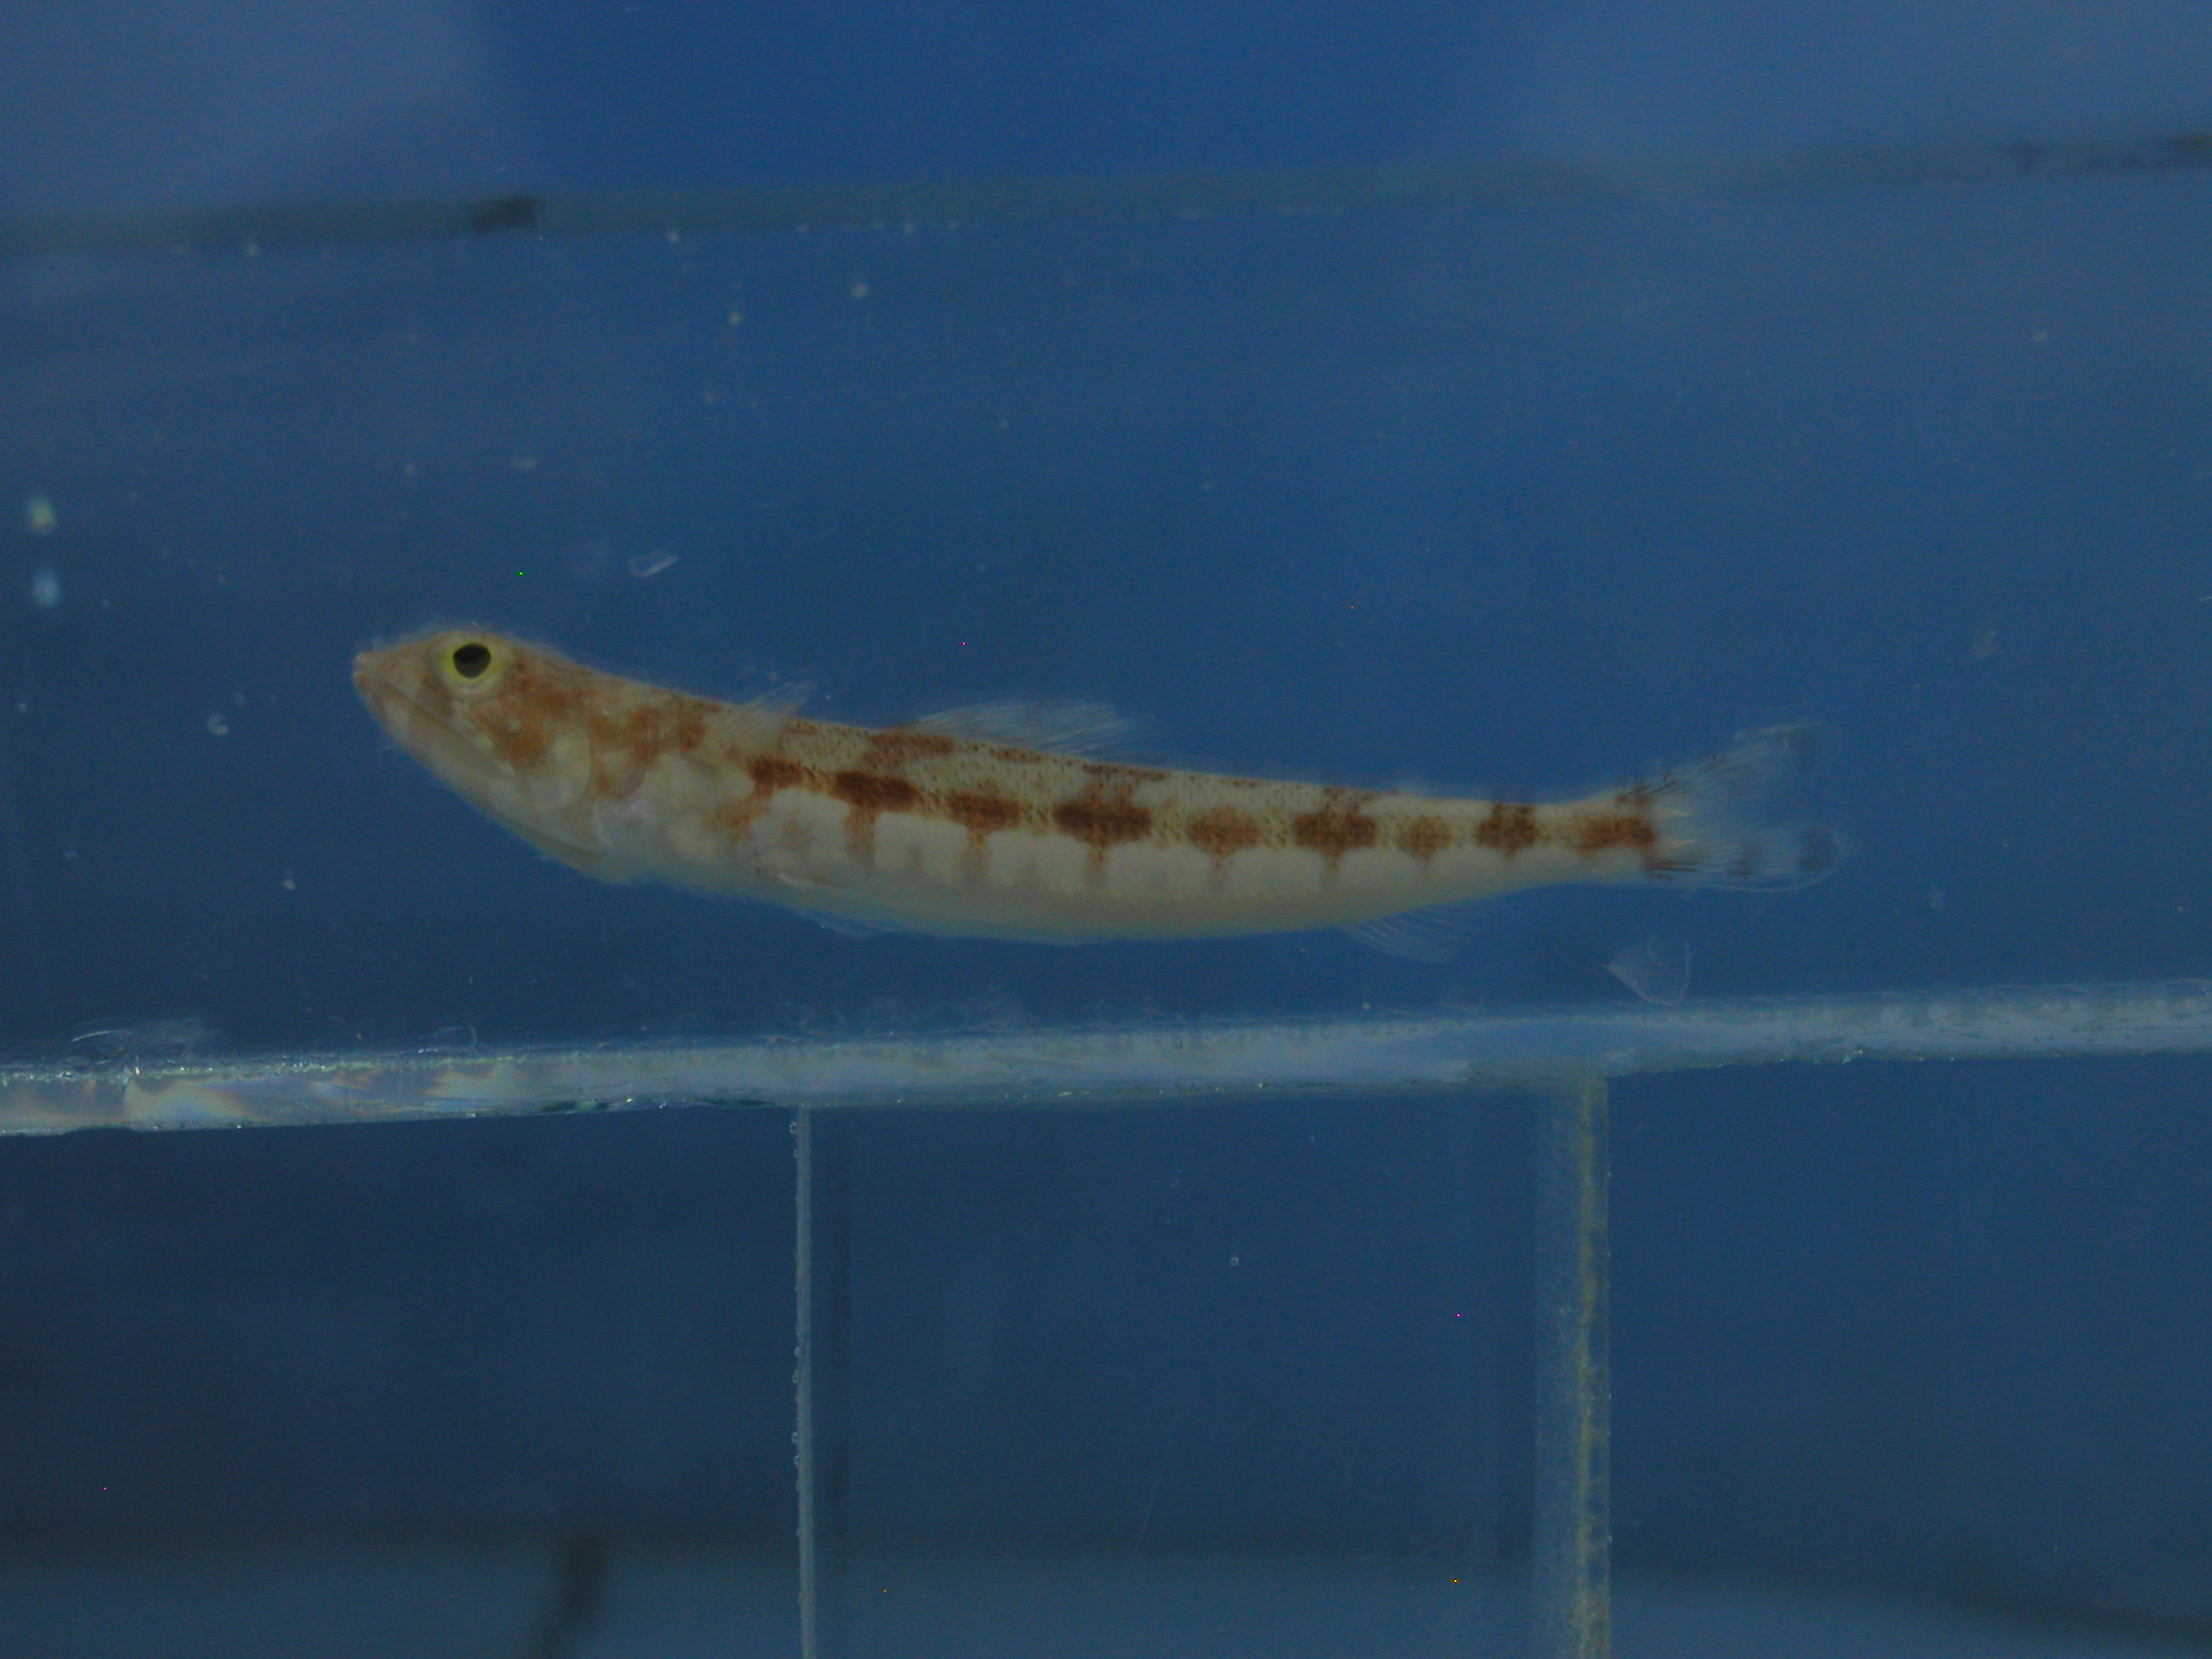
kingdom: Animalia
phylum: Chordata
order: Aulopiformes
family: Synodontidae
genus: Synodus
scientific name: Synodus variegatus
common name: Variegated lizardfish
